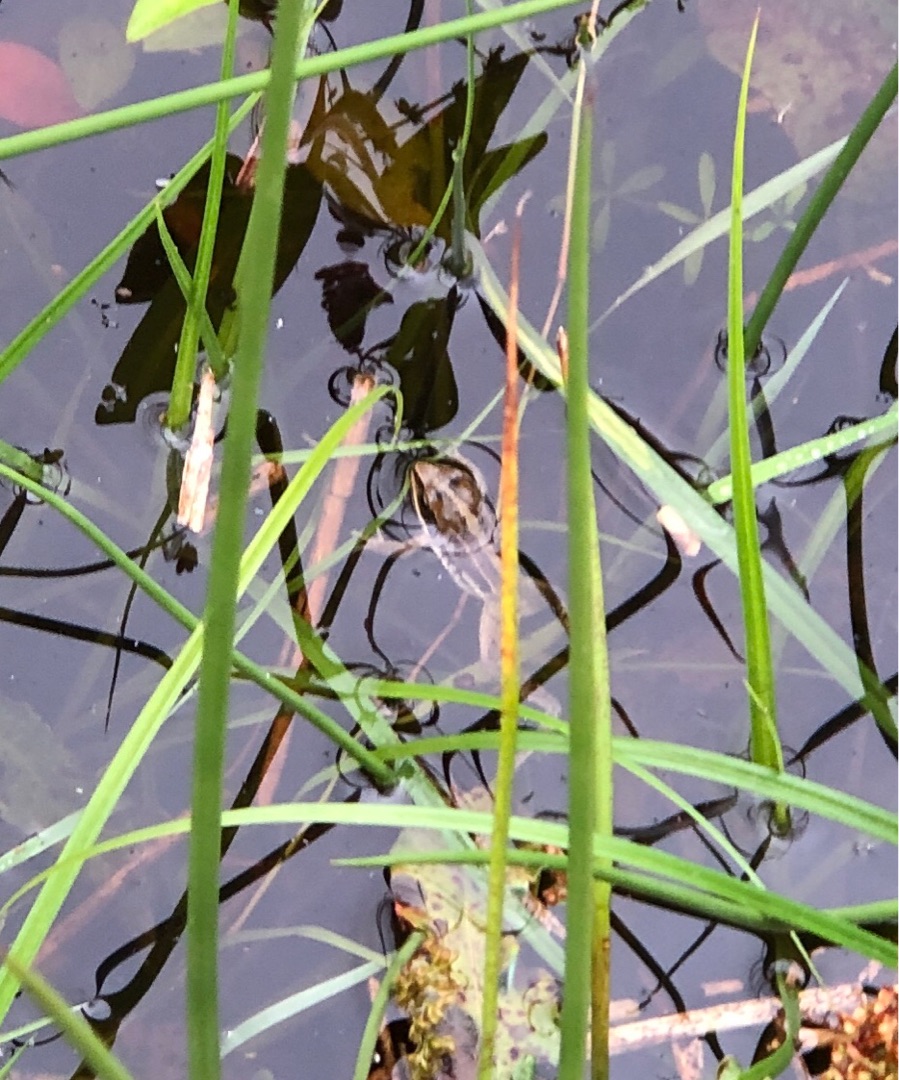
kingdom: Animalia
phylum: Chordata
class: Amphibia
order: Anura
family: Ranidae
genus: Rana
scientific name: Rana arvalis
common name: Spidssnudet frø
